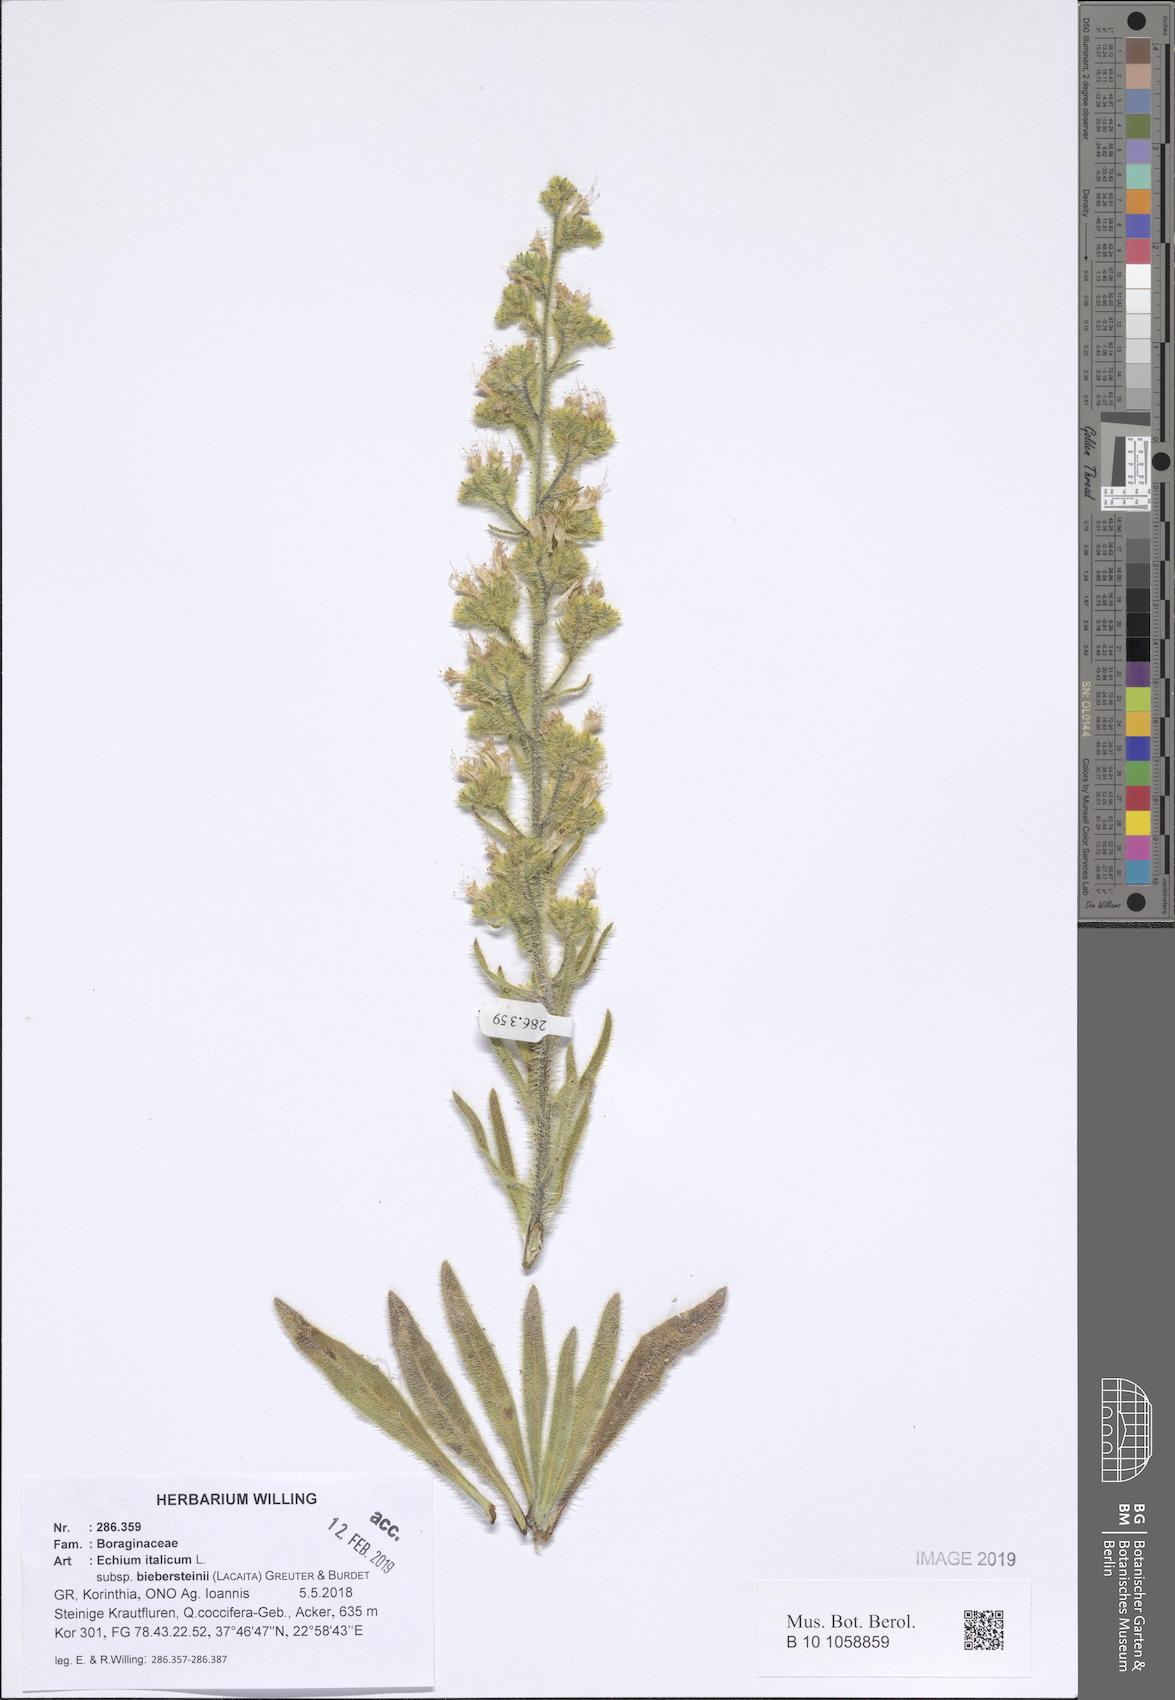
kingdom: Plantae
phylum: Tracheophyta
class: Magnoliopsida
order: Boraginales
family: Boraginaceae
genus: Echium
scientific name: Echium italicum
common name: Italian viper's bugloss
